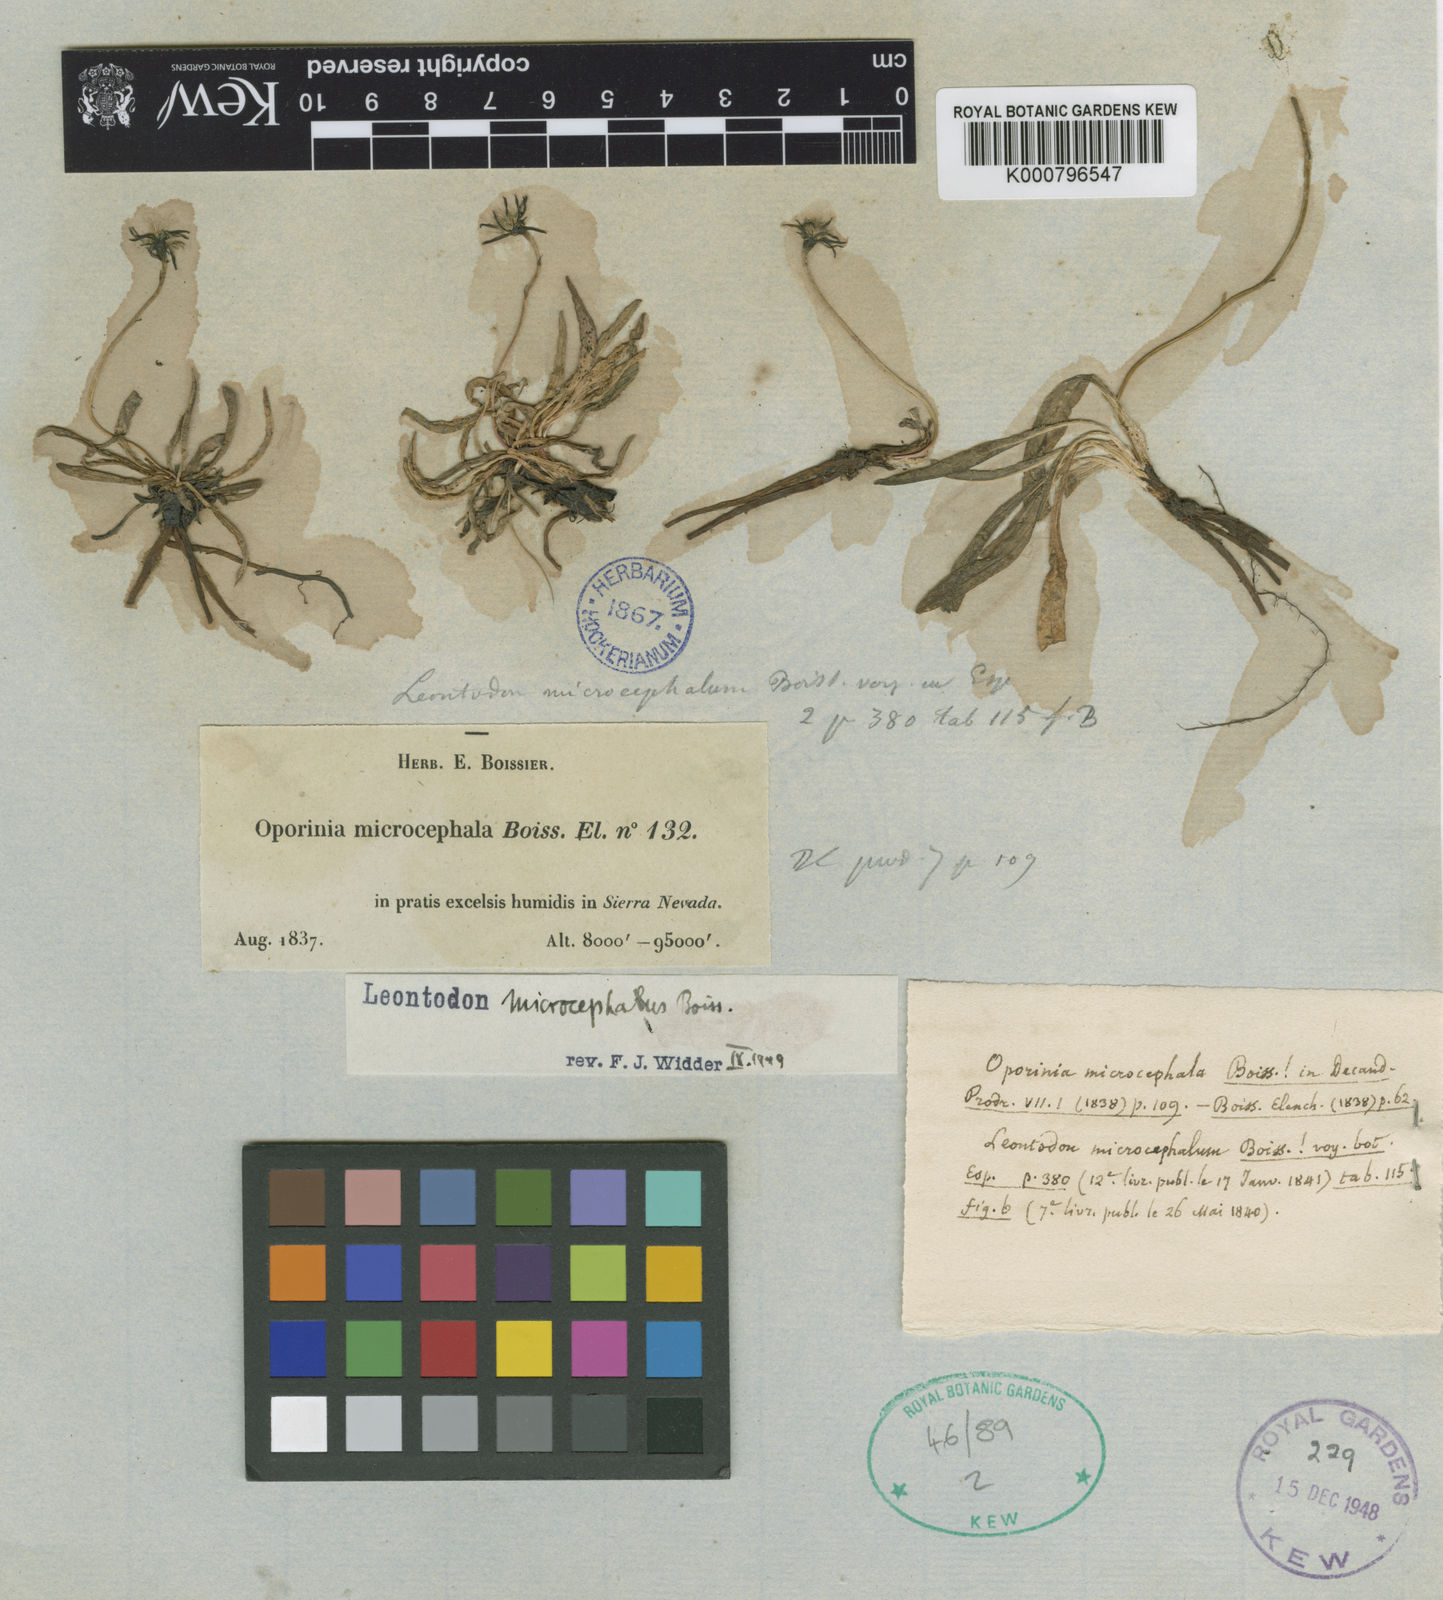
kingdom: Plantae
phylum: Tracheophyta
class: Magnoliopsida
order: Asterales
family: Asteraceae
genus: Leontodon
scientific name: Leontodon hispidus
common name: Rough hawkbit
